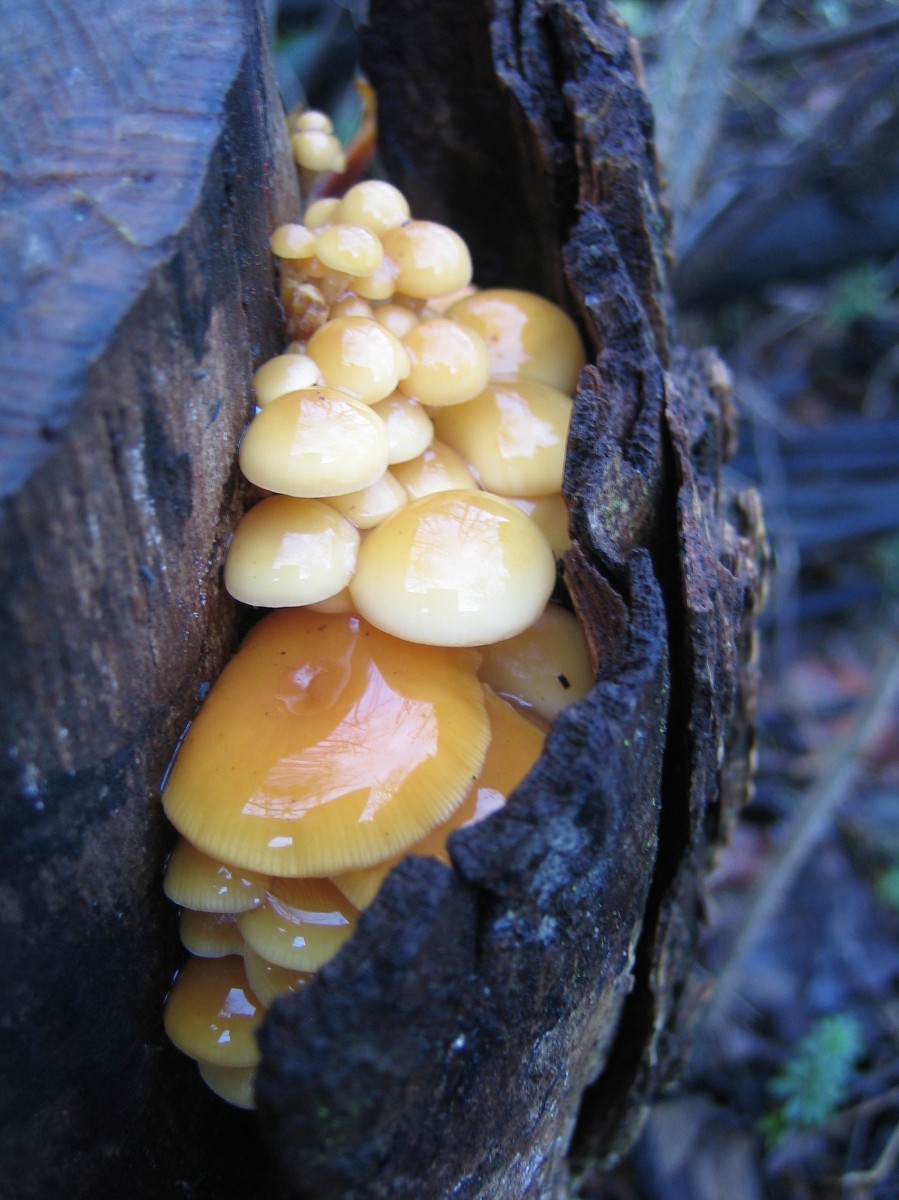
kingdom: Fungi
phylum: Basidiomycota
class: Agaricomycetes
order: Agaricales
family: Physalacriaceae
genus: Flammulina
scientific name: Flammulina velutipes
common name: gul fløjlsfod
